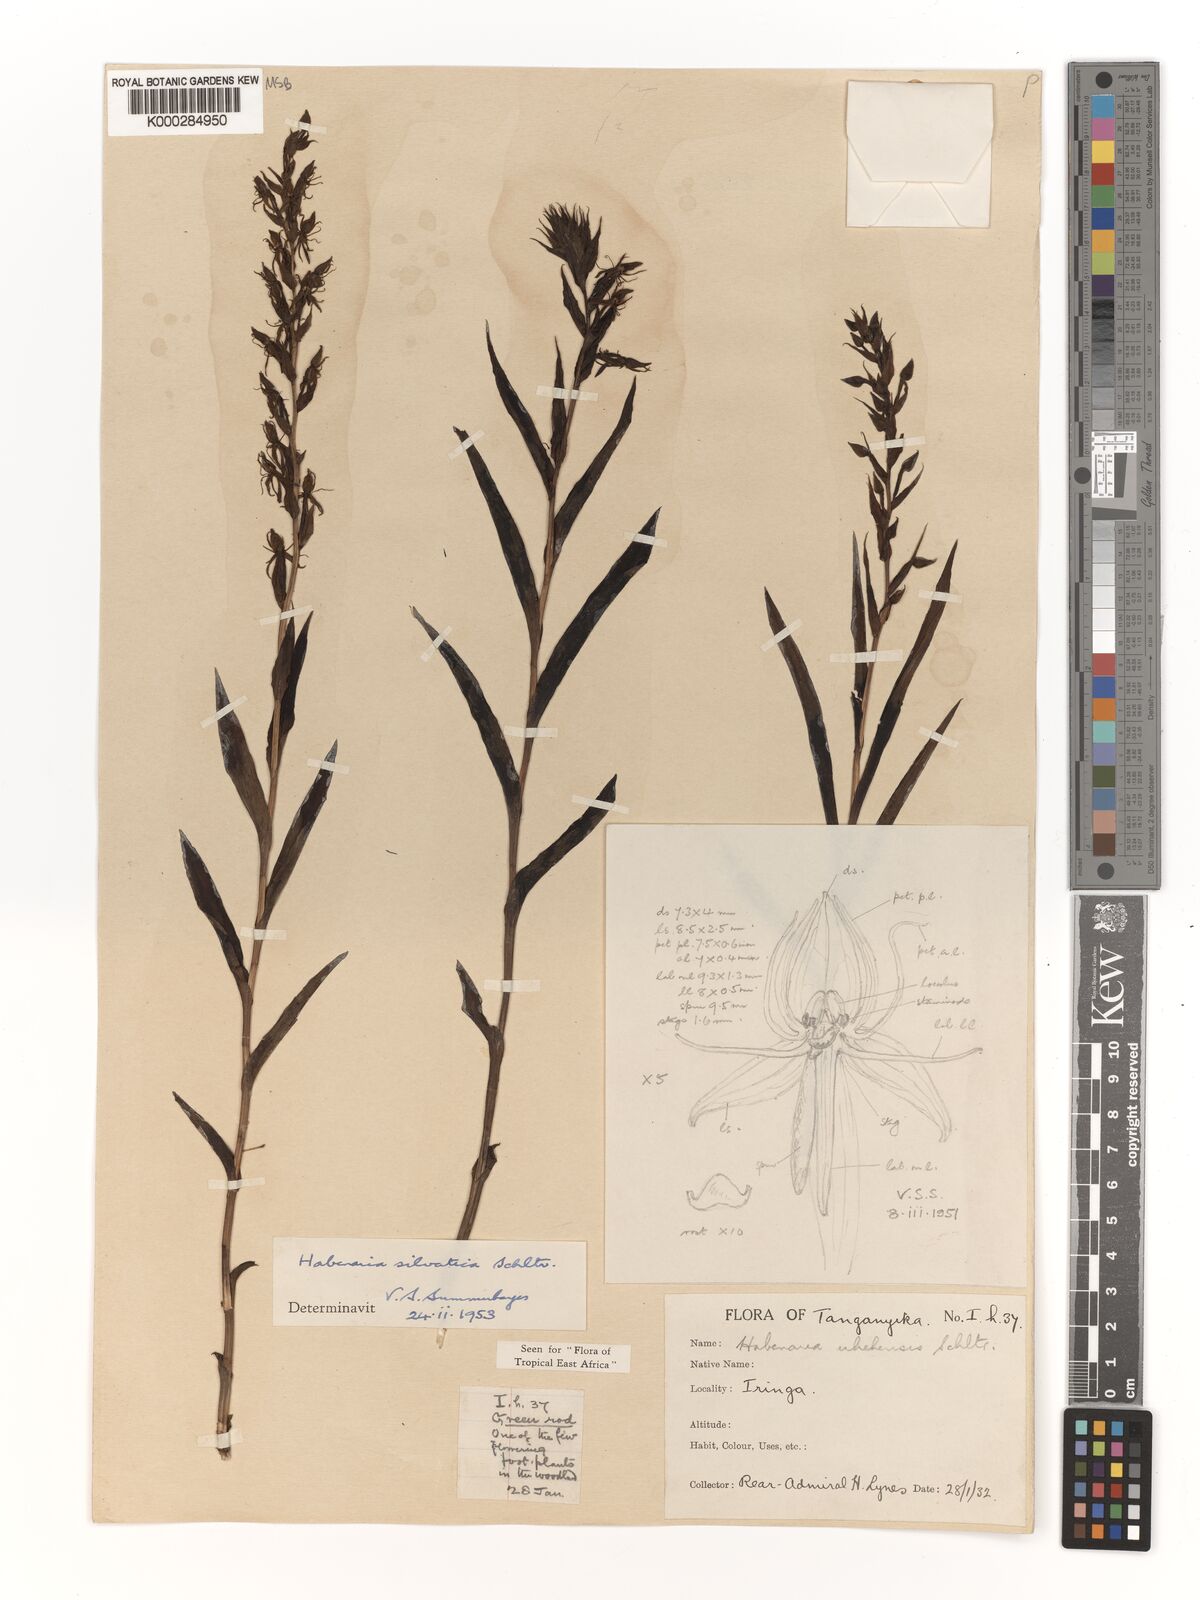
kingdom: Plantae
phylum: Tracheophyta
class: Liliopsida
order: Asparagales
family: Orchidaceae
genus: Habenaria
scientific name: Habenaria silvatica
